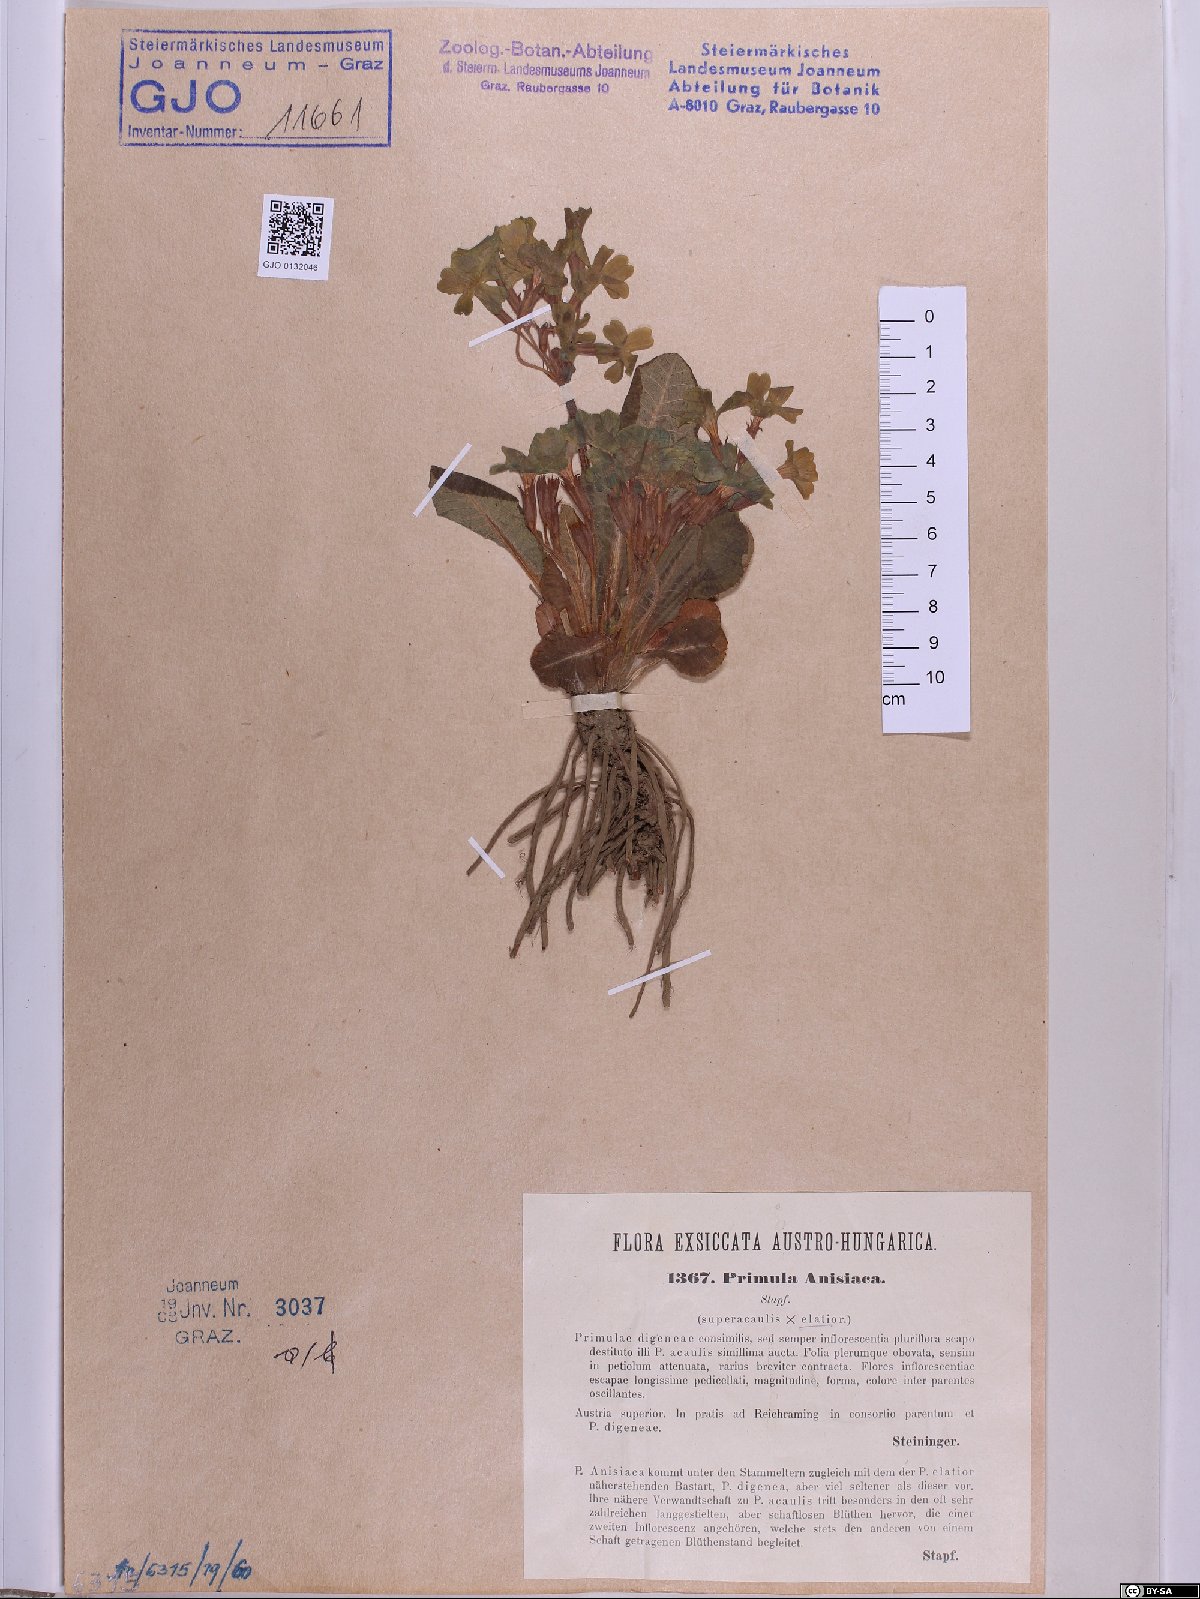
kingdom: Plantae
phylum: Tracheophyta
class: Magnoliopsida
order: Ericales
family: Primulaceae
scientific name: Primulaceae
